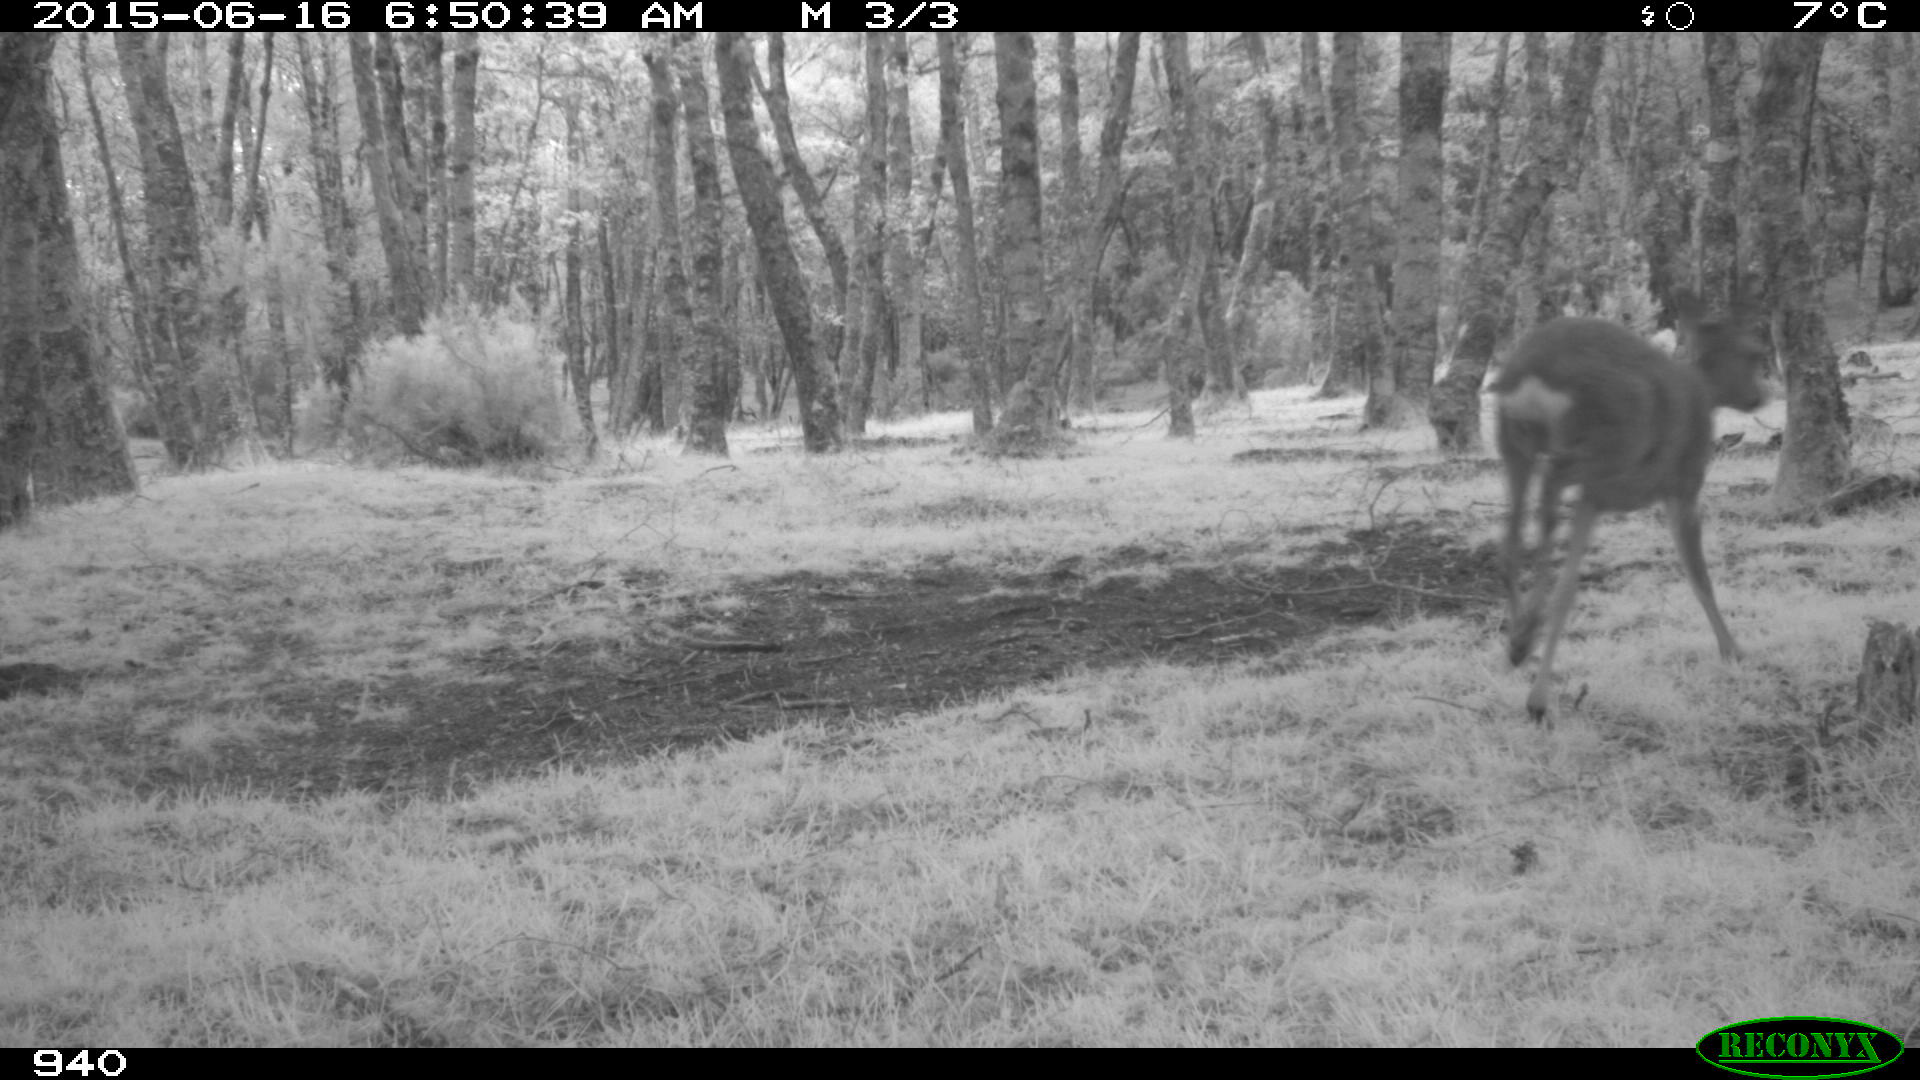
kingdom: Animalia
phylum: Chordata
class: Mammalia
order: Artiodactyla
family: Cervidae
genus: Capreolus
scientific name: Capreolus capreolus
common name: Western roe deer
